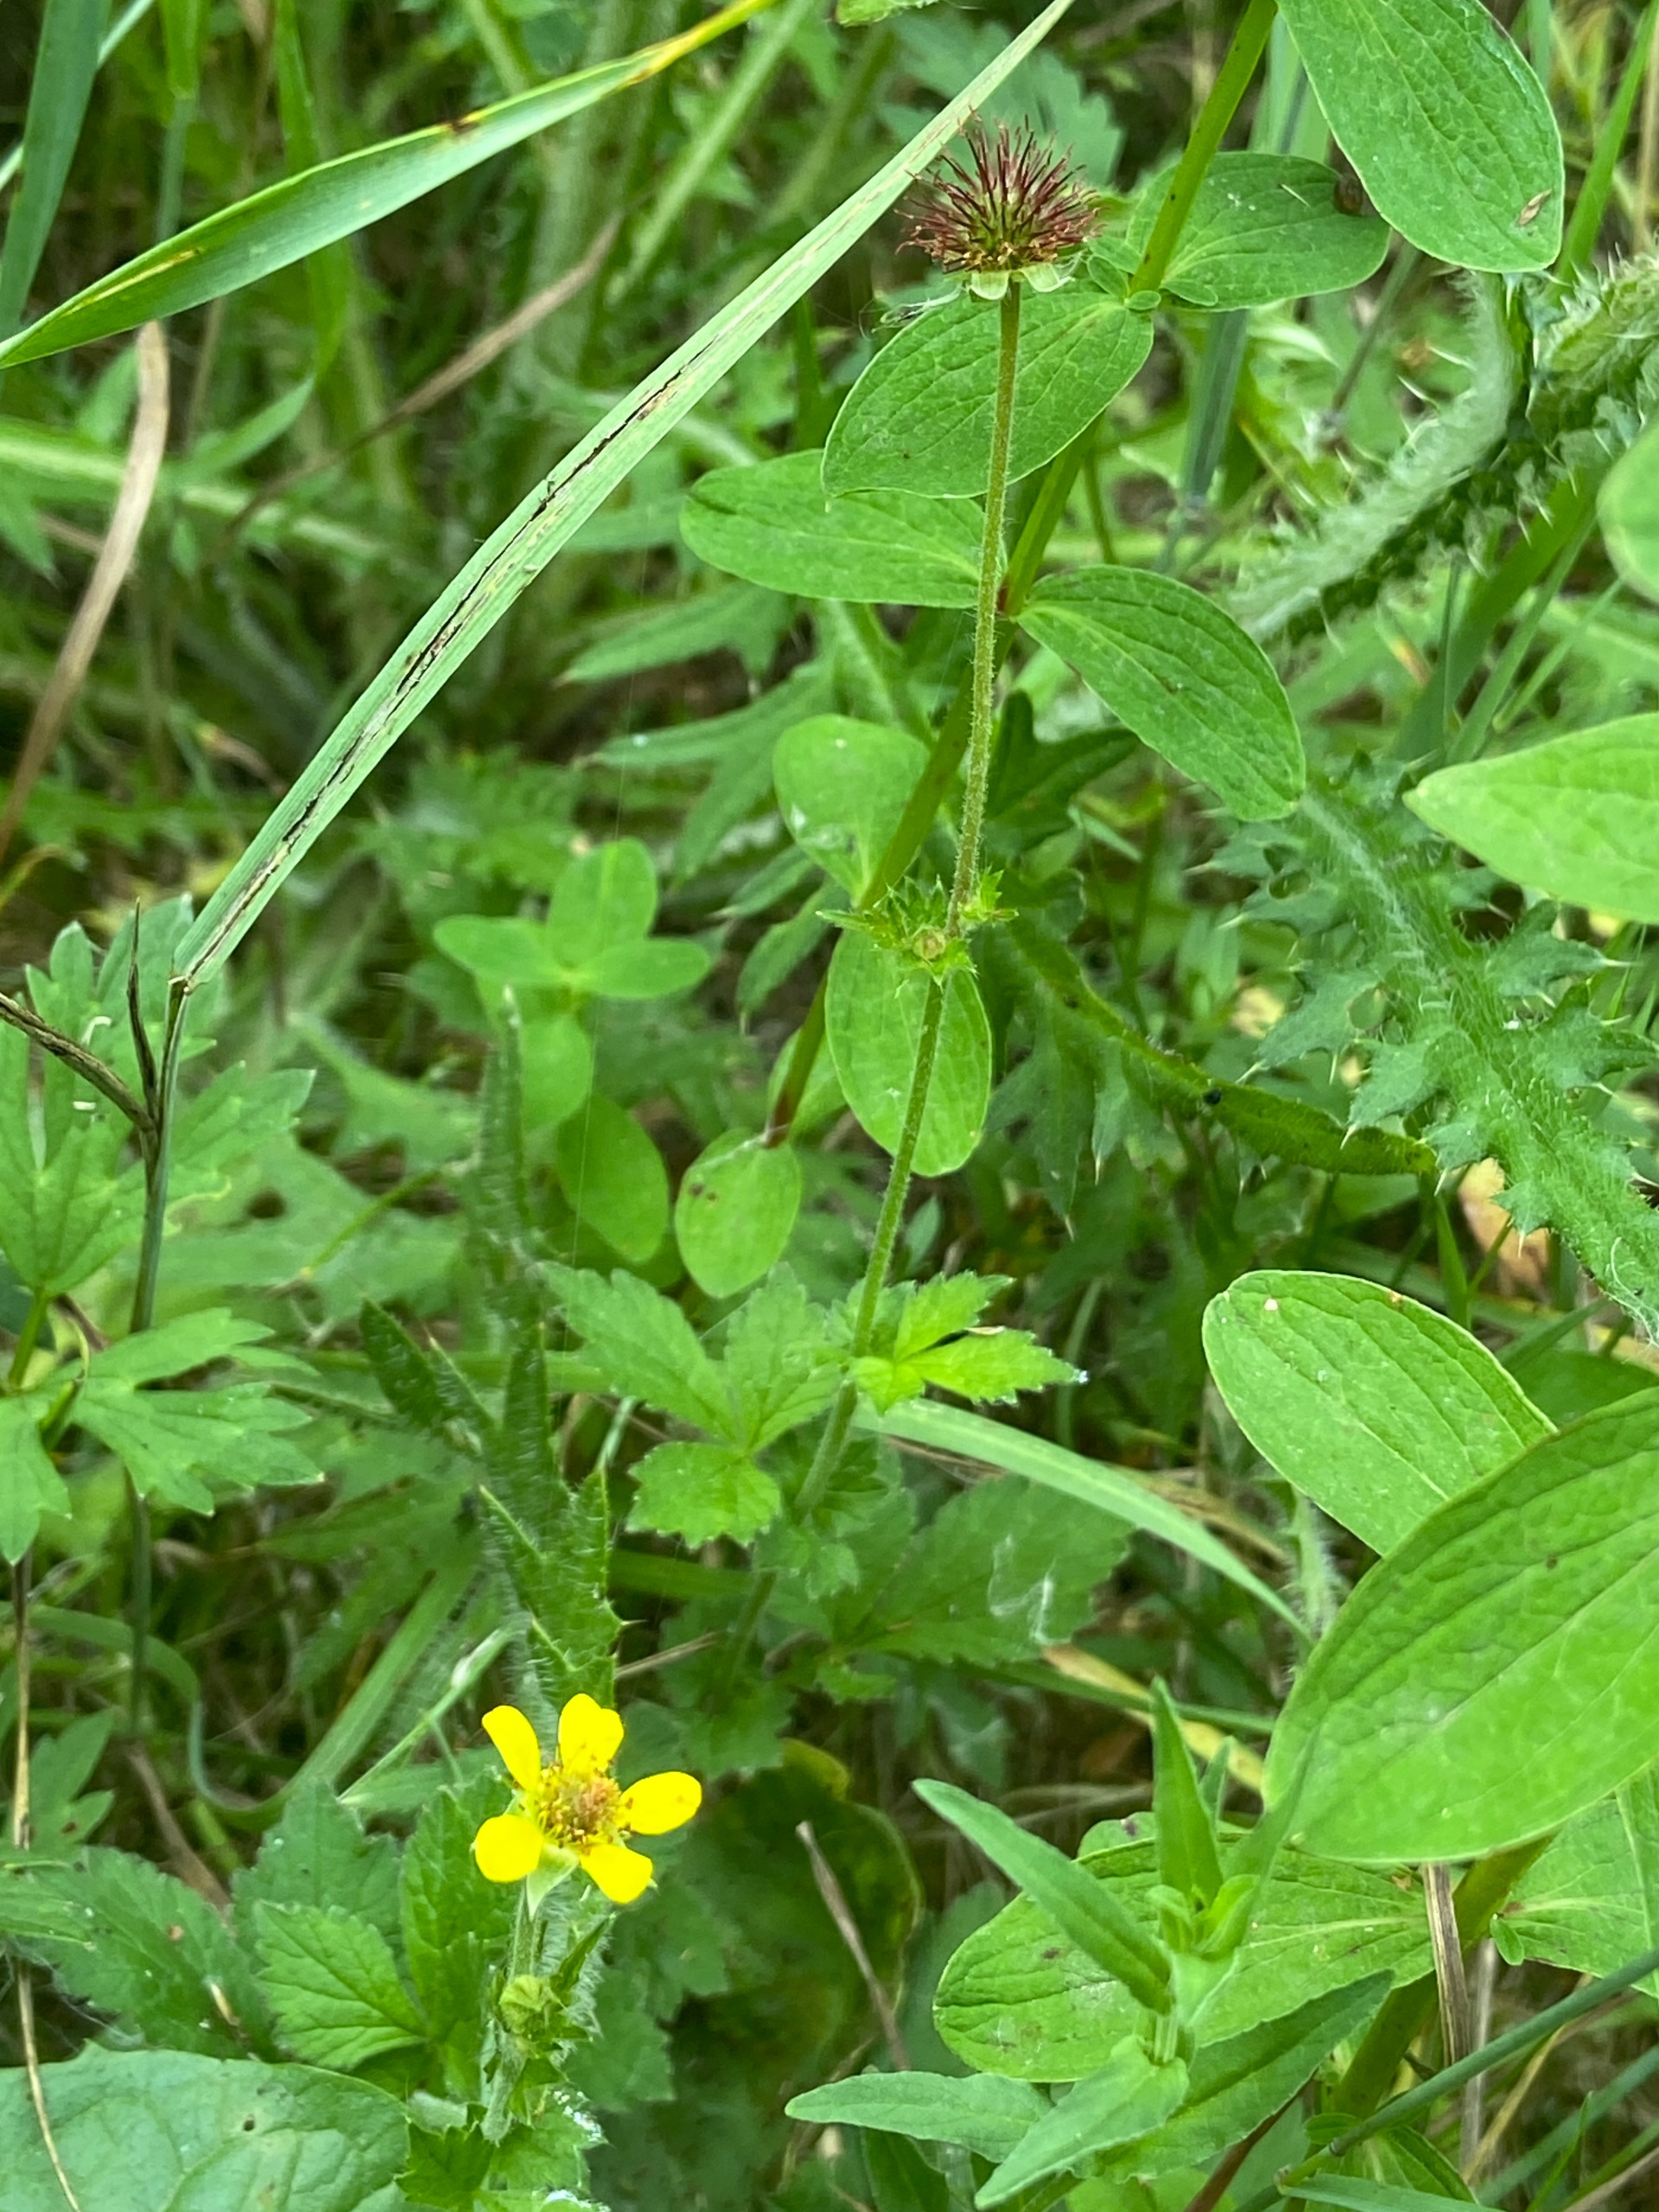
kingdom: Plantae
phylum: Tracheophyta
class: Magnoliopsida
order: Rosales
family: Rosaceae
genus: Geum
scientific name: Geum urbanum
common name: Feber-nellikerod
